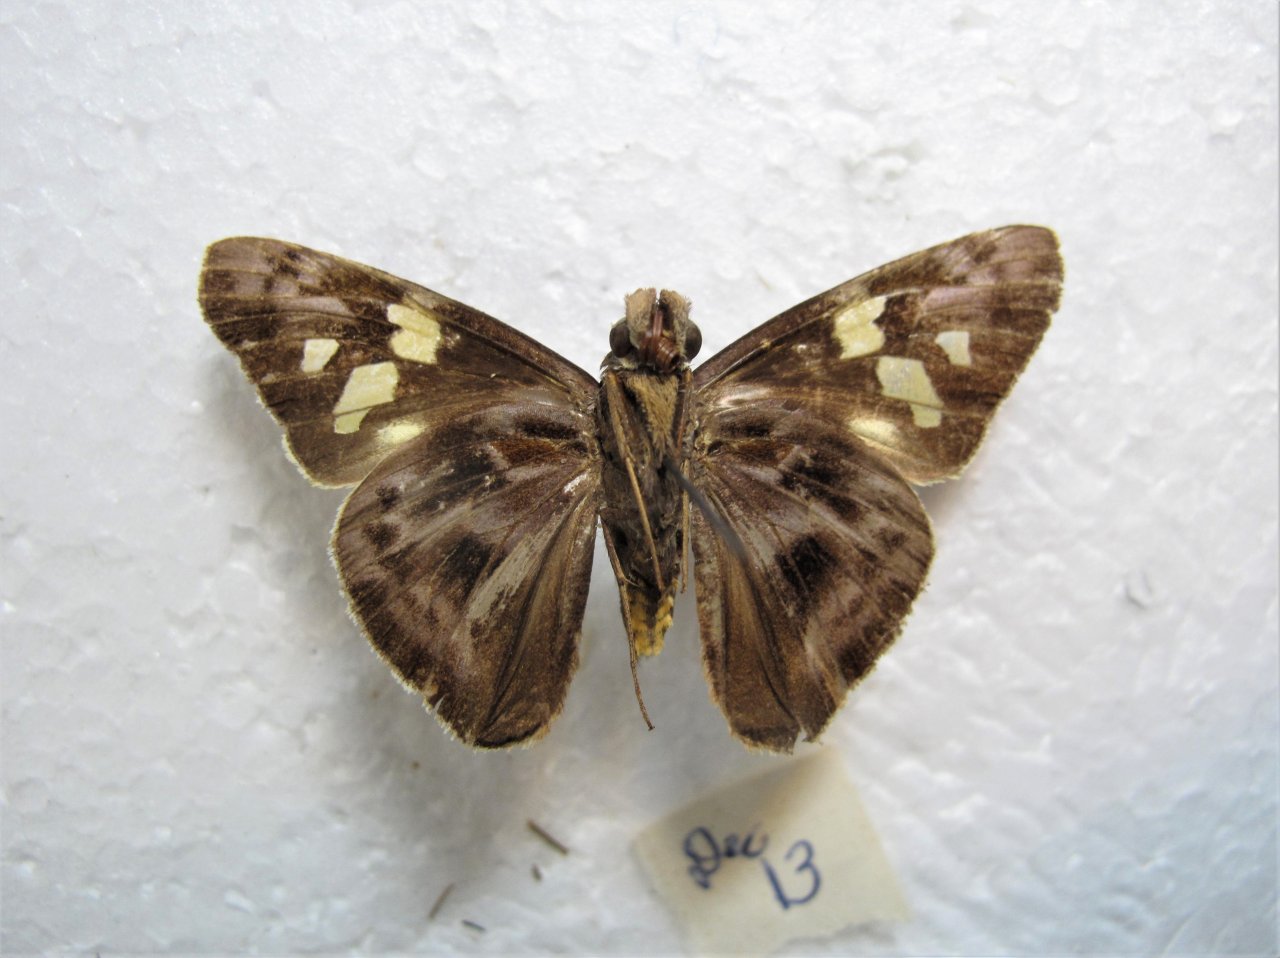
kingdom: Animalia
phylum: Arthropoda
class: Insecta
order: Lepidoptera
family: Hesperiidae
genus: Perichares
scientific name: Perichares philetes
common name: Green-backed Ruby-eye
